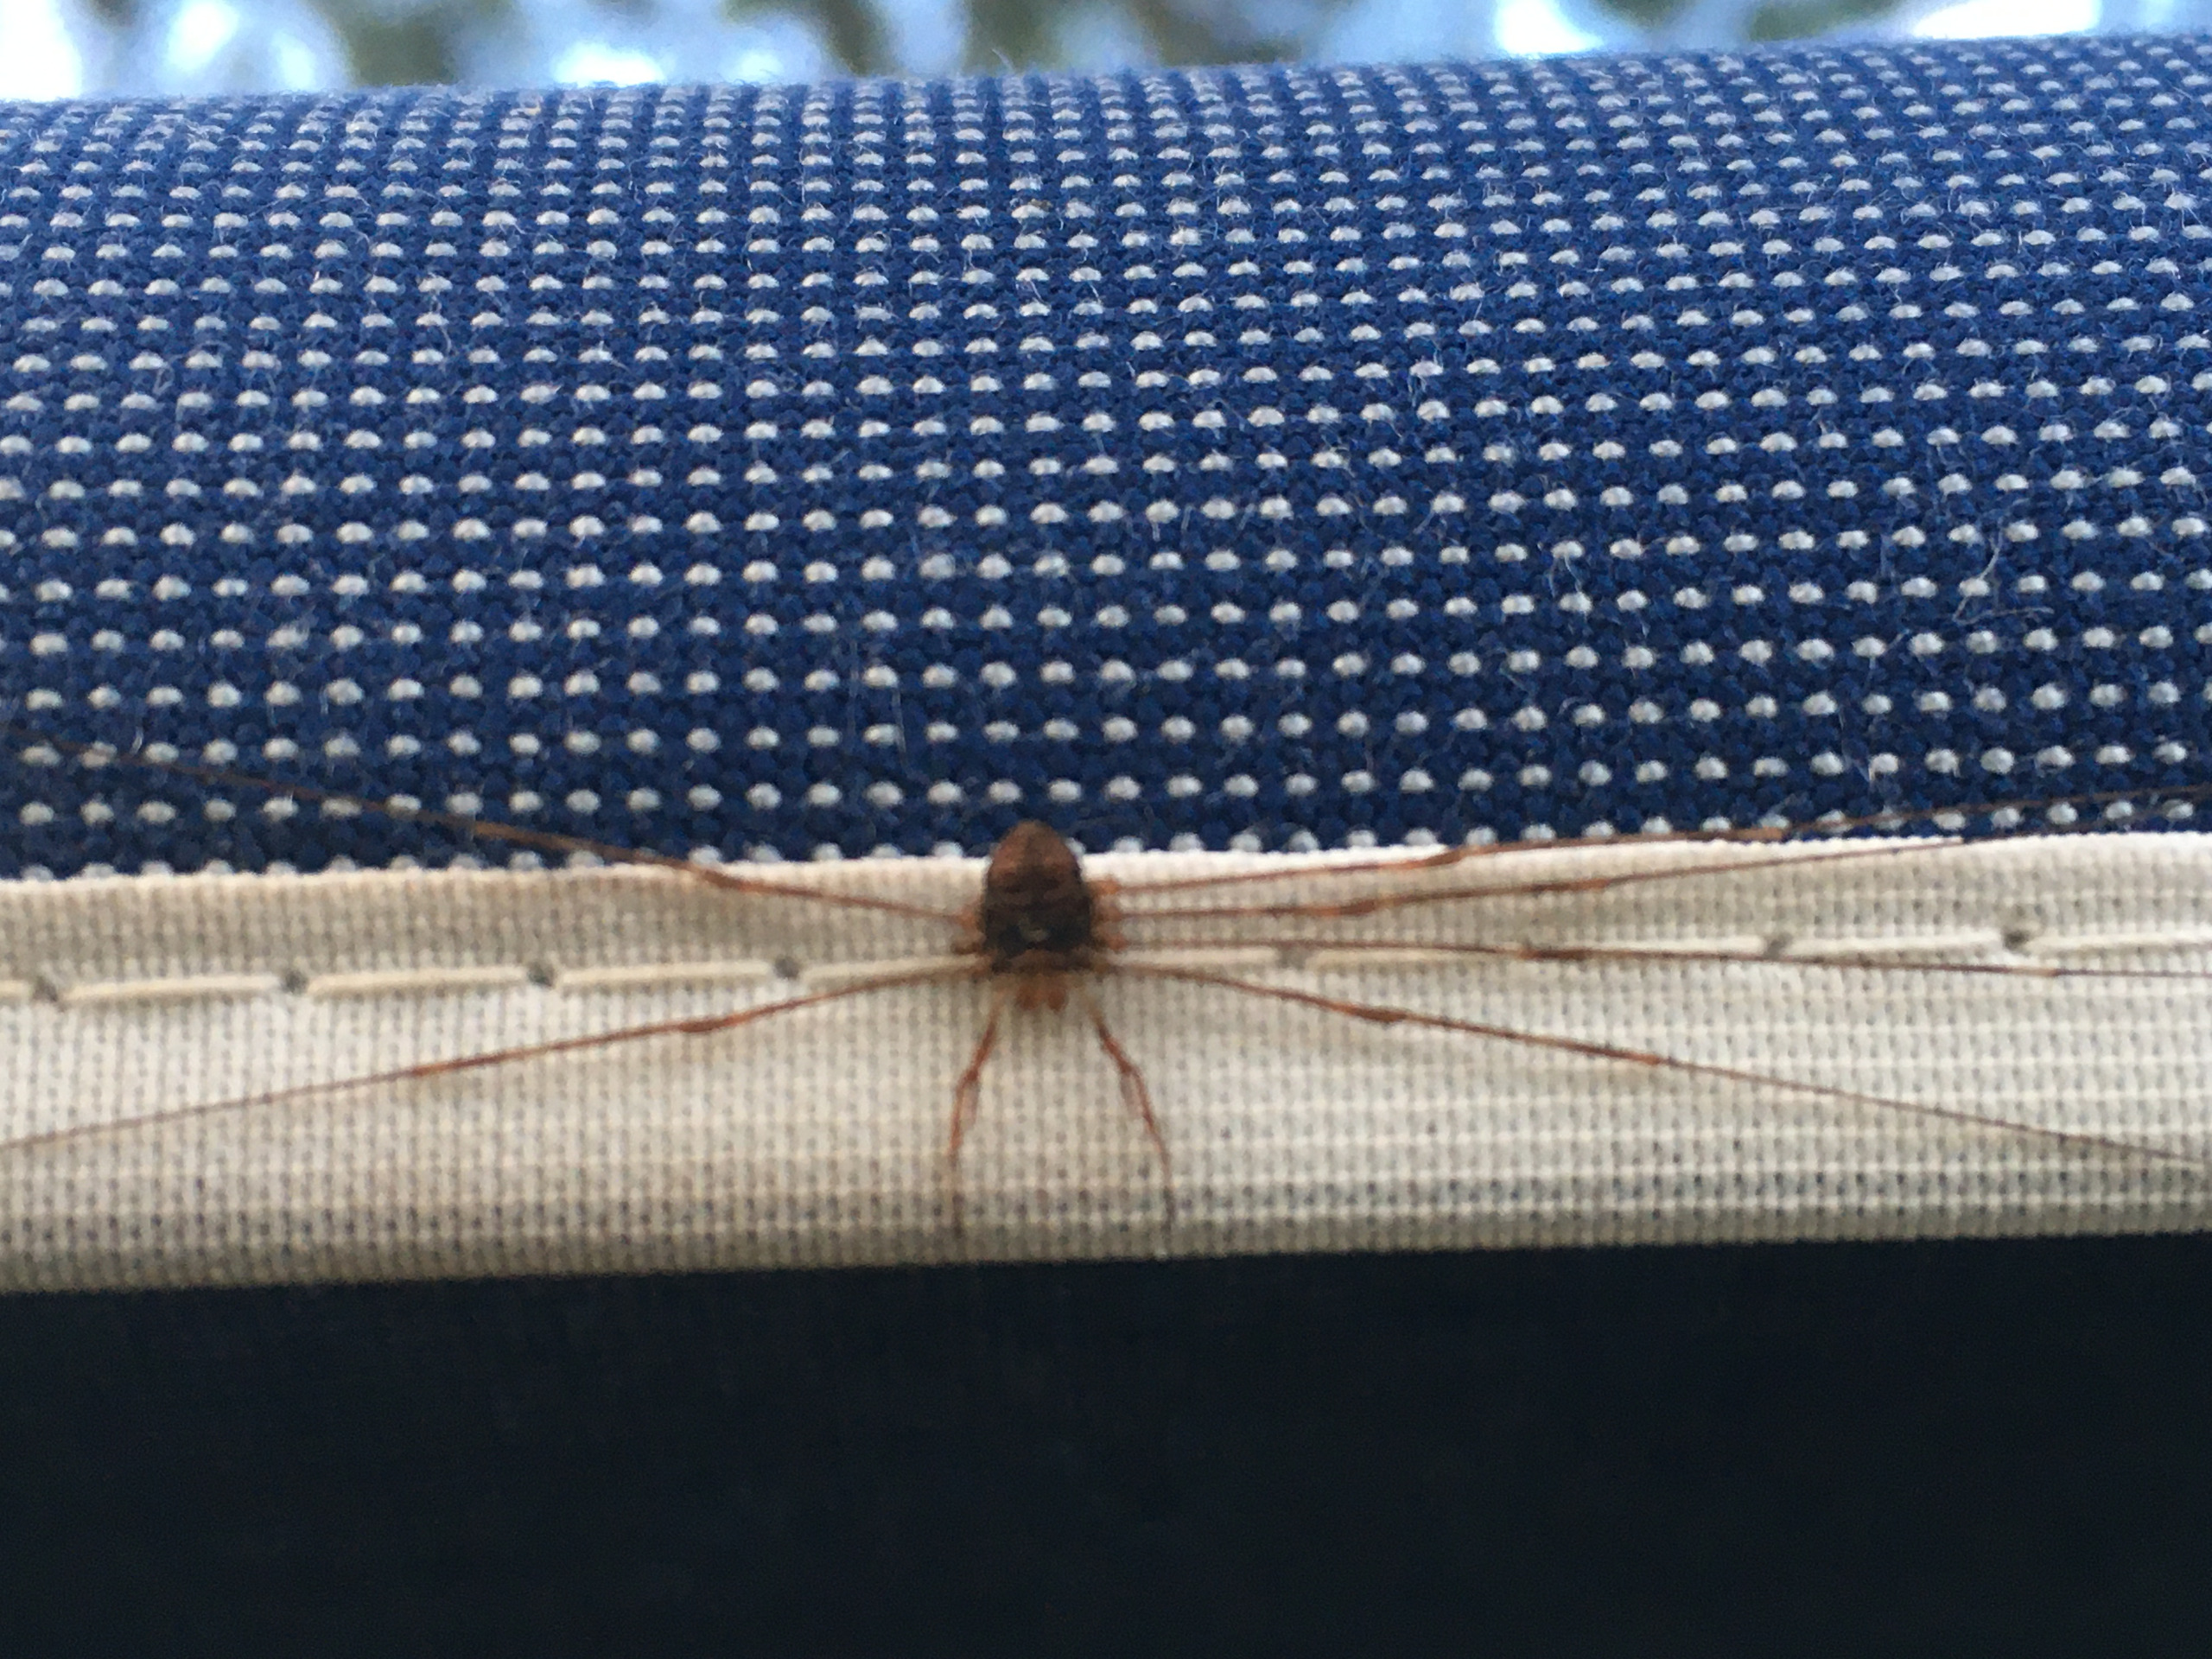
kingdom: Animalia
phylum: Arthropoda
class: Arachnida
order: Opiliones
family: Phalangiidae
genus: Dicranopalpus
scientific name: Dicranopalpus ramosus
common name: Gaffelmejer
